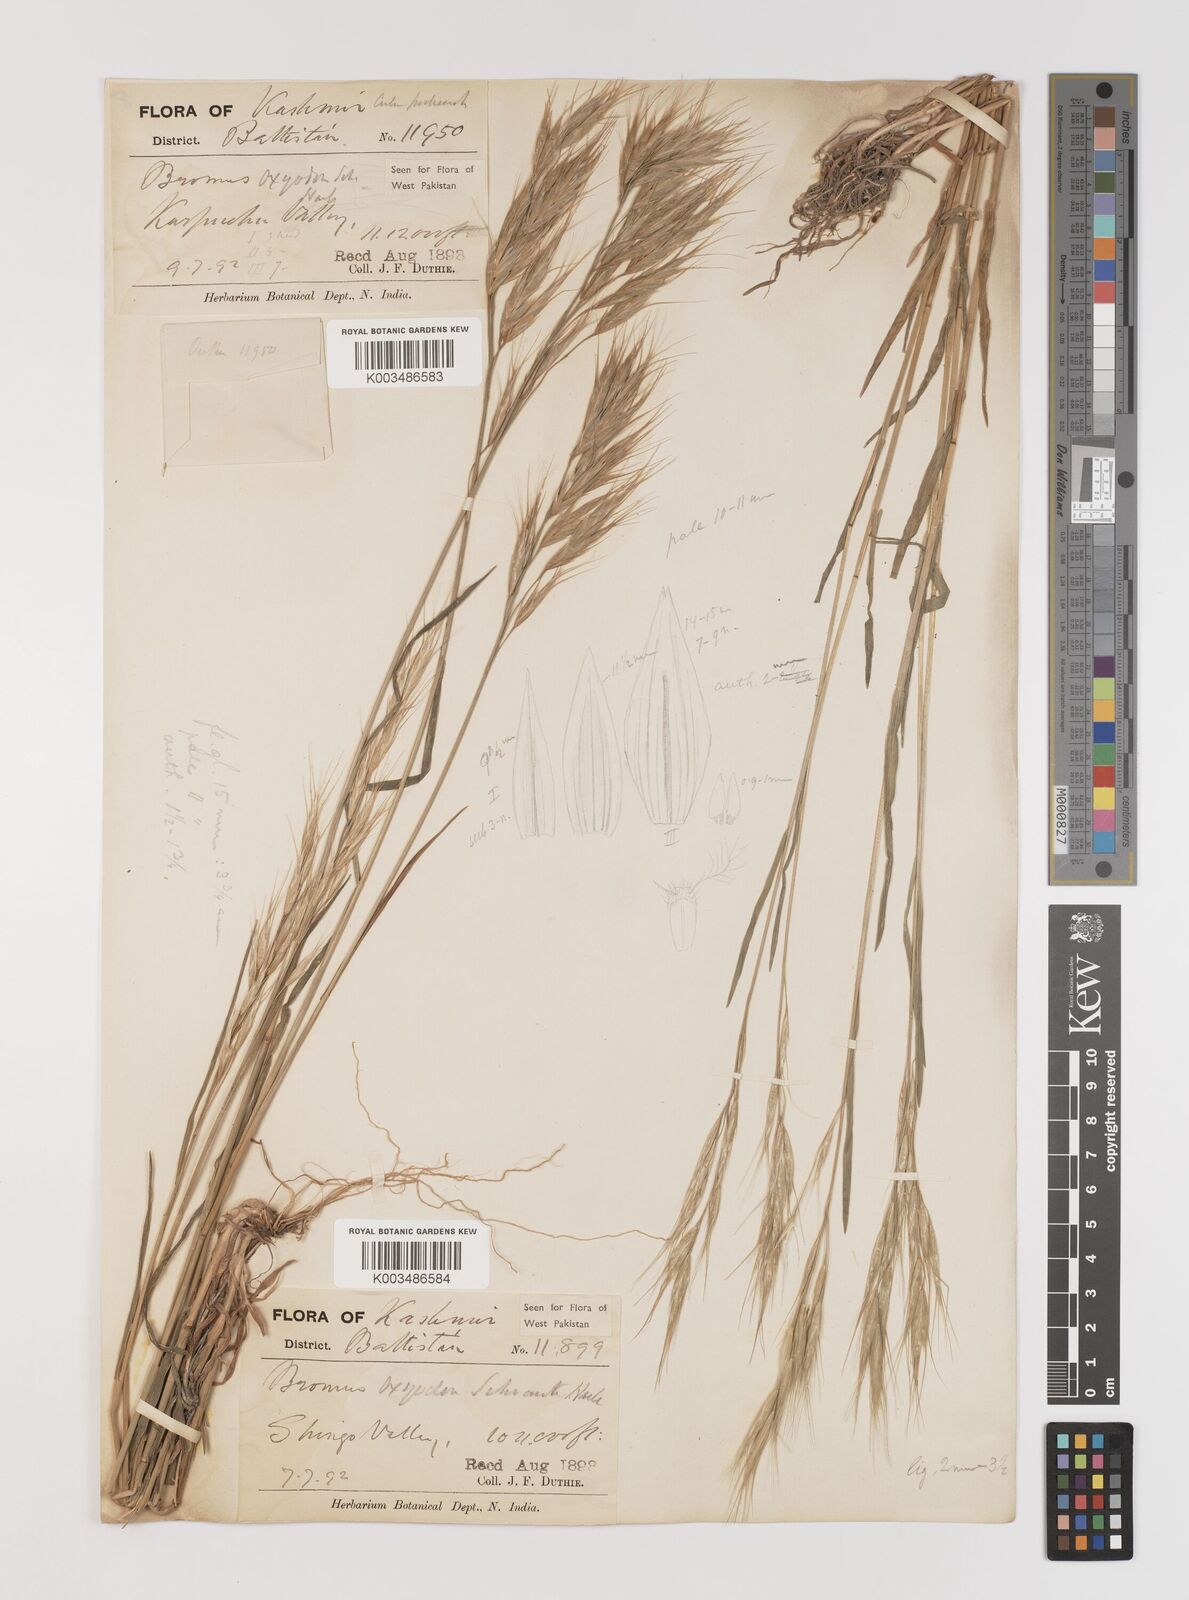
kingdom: Plantae
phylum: Tracheophyta
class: Liliopsida
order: Poales
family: Poaceae
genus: Bromus
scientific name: Bromus oxyodon
